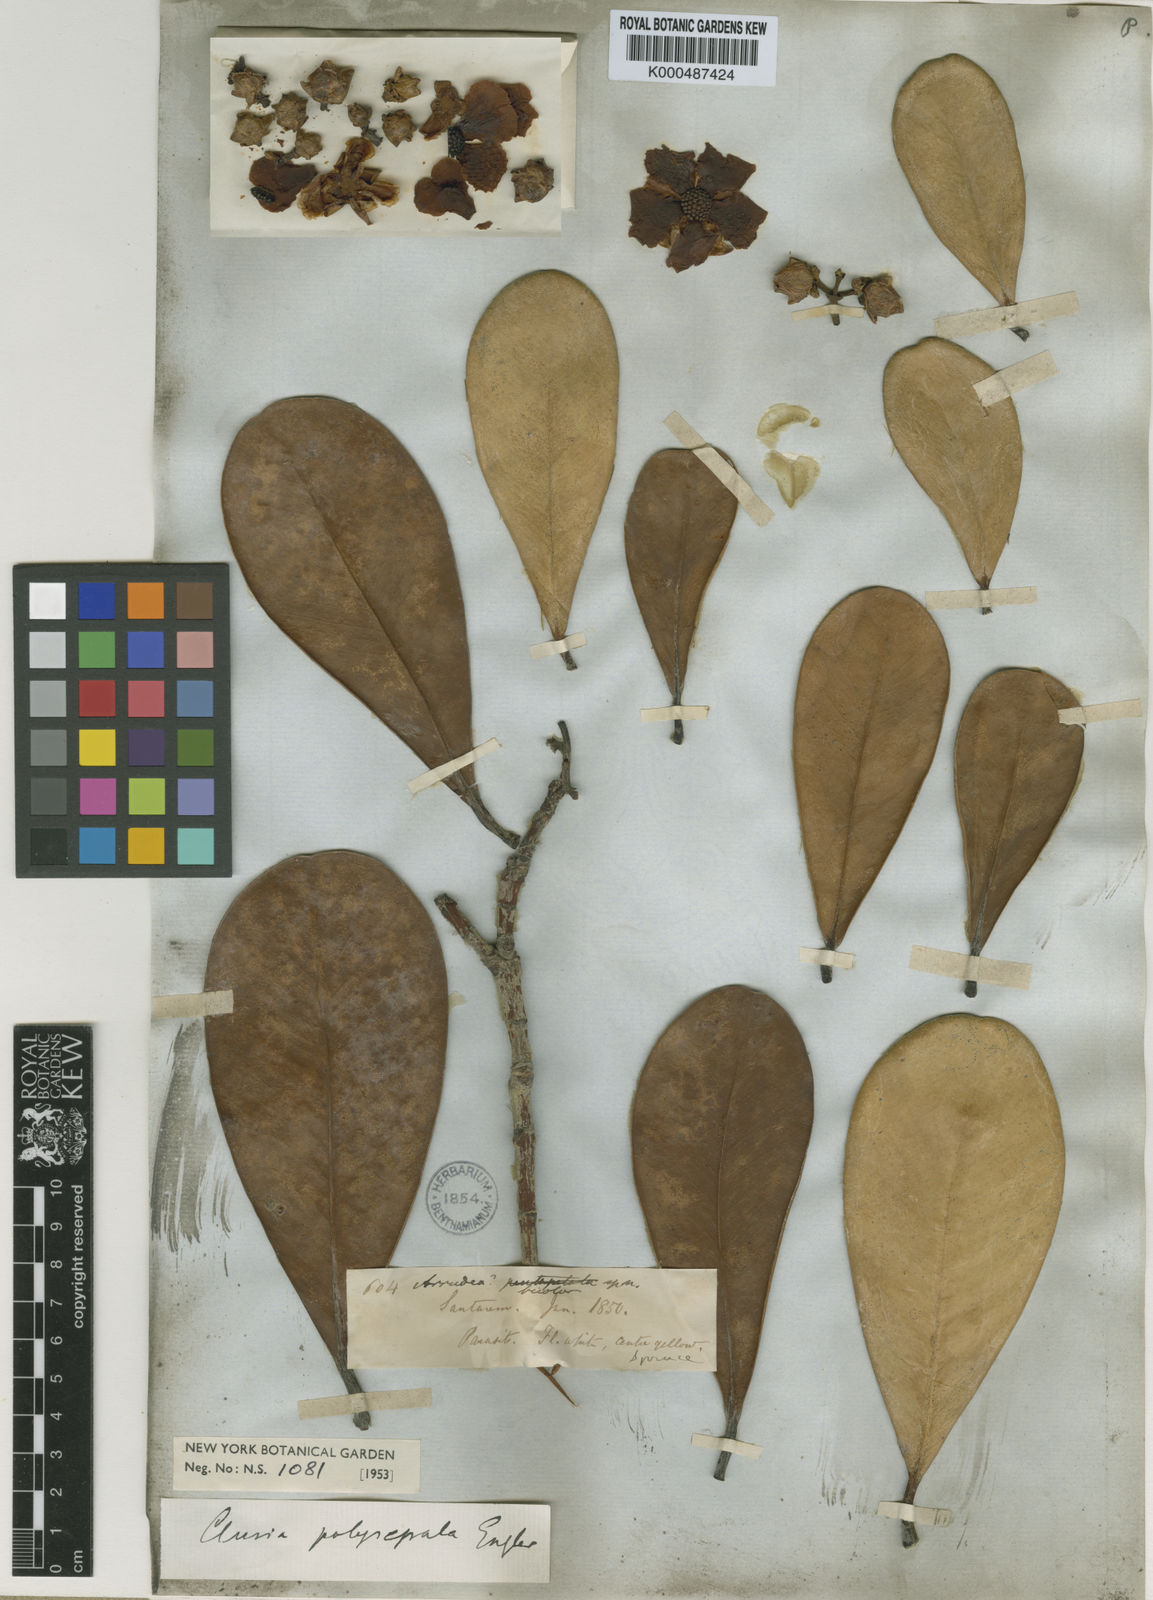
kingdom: Plantae
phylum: Tracheophyta
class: Magnoliopsida
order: Malpighiales
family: Clusiaceae
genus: Clusia
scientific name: Clusia
